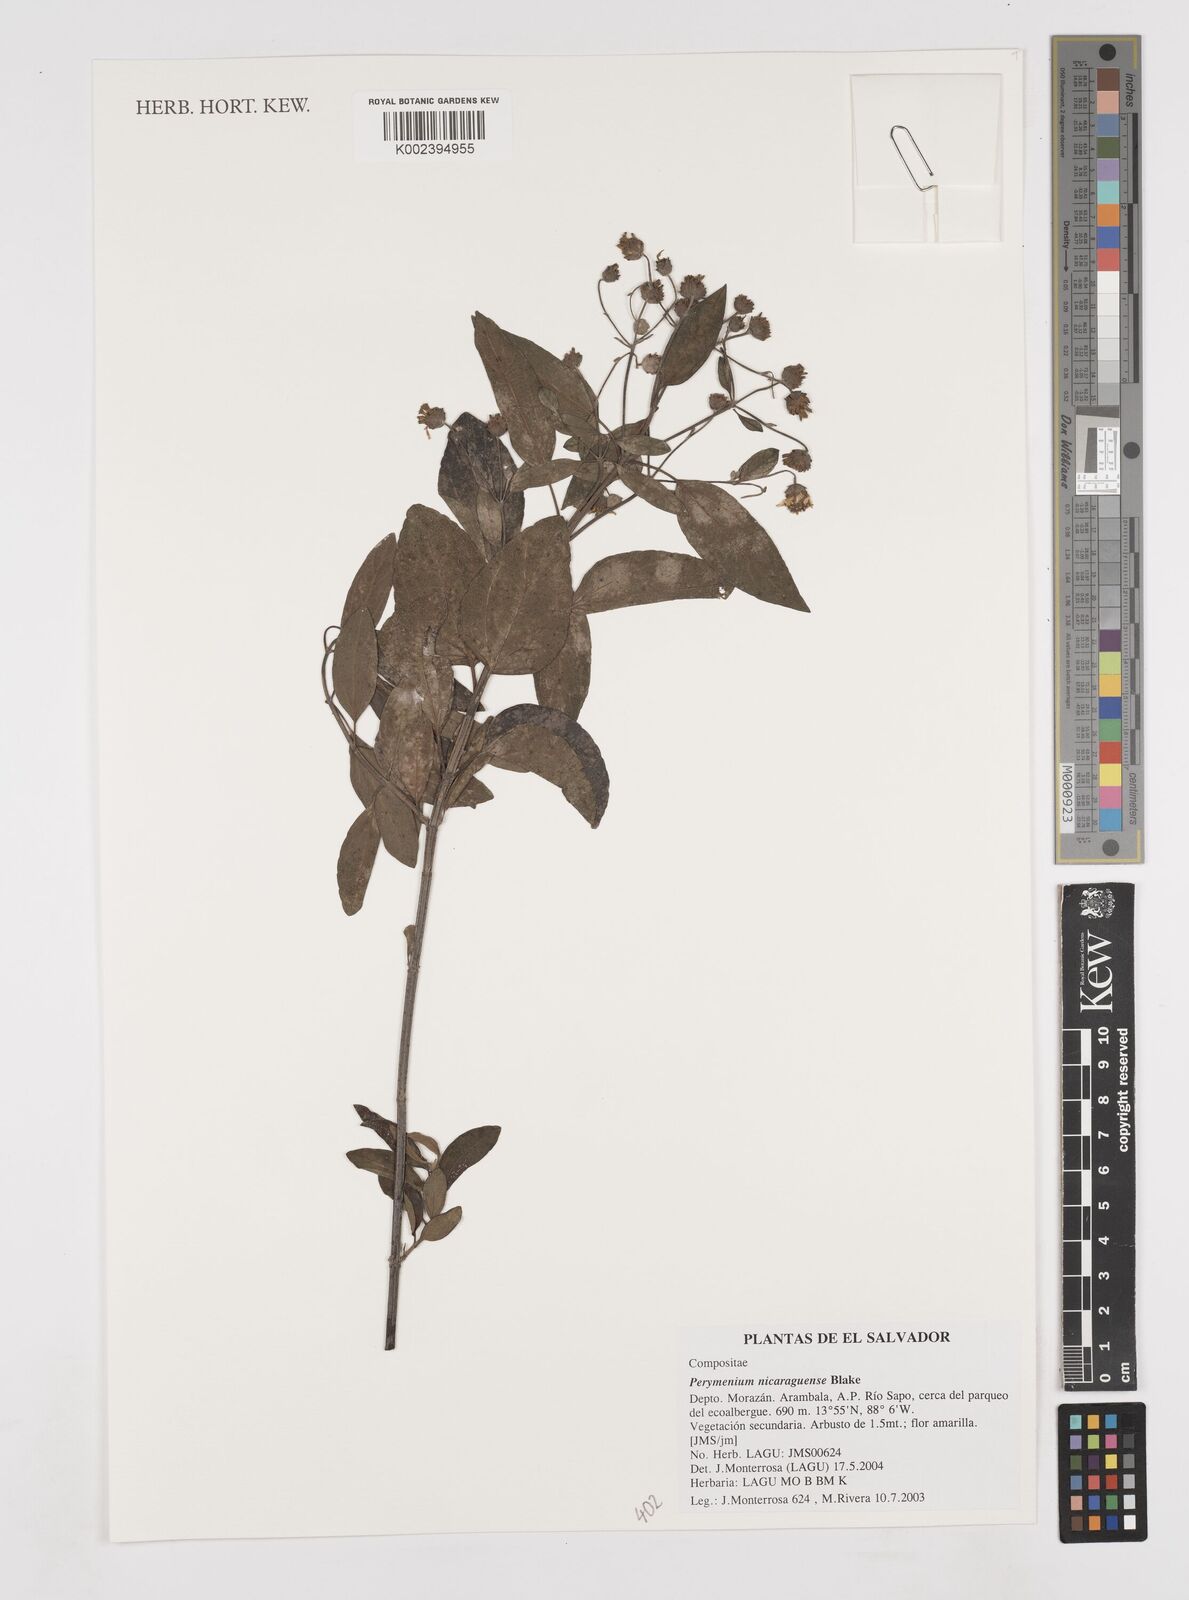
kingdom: Plantae
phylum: Tracheophyta
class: Magnoliopsida
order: Asterales
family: Asteraceae
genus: Perymenium
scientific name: Perymenium nicaraguense
